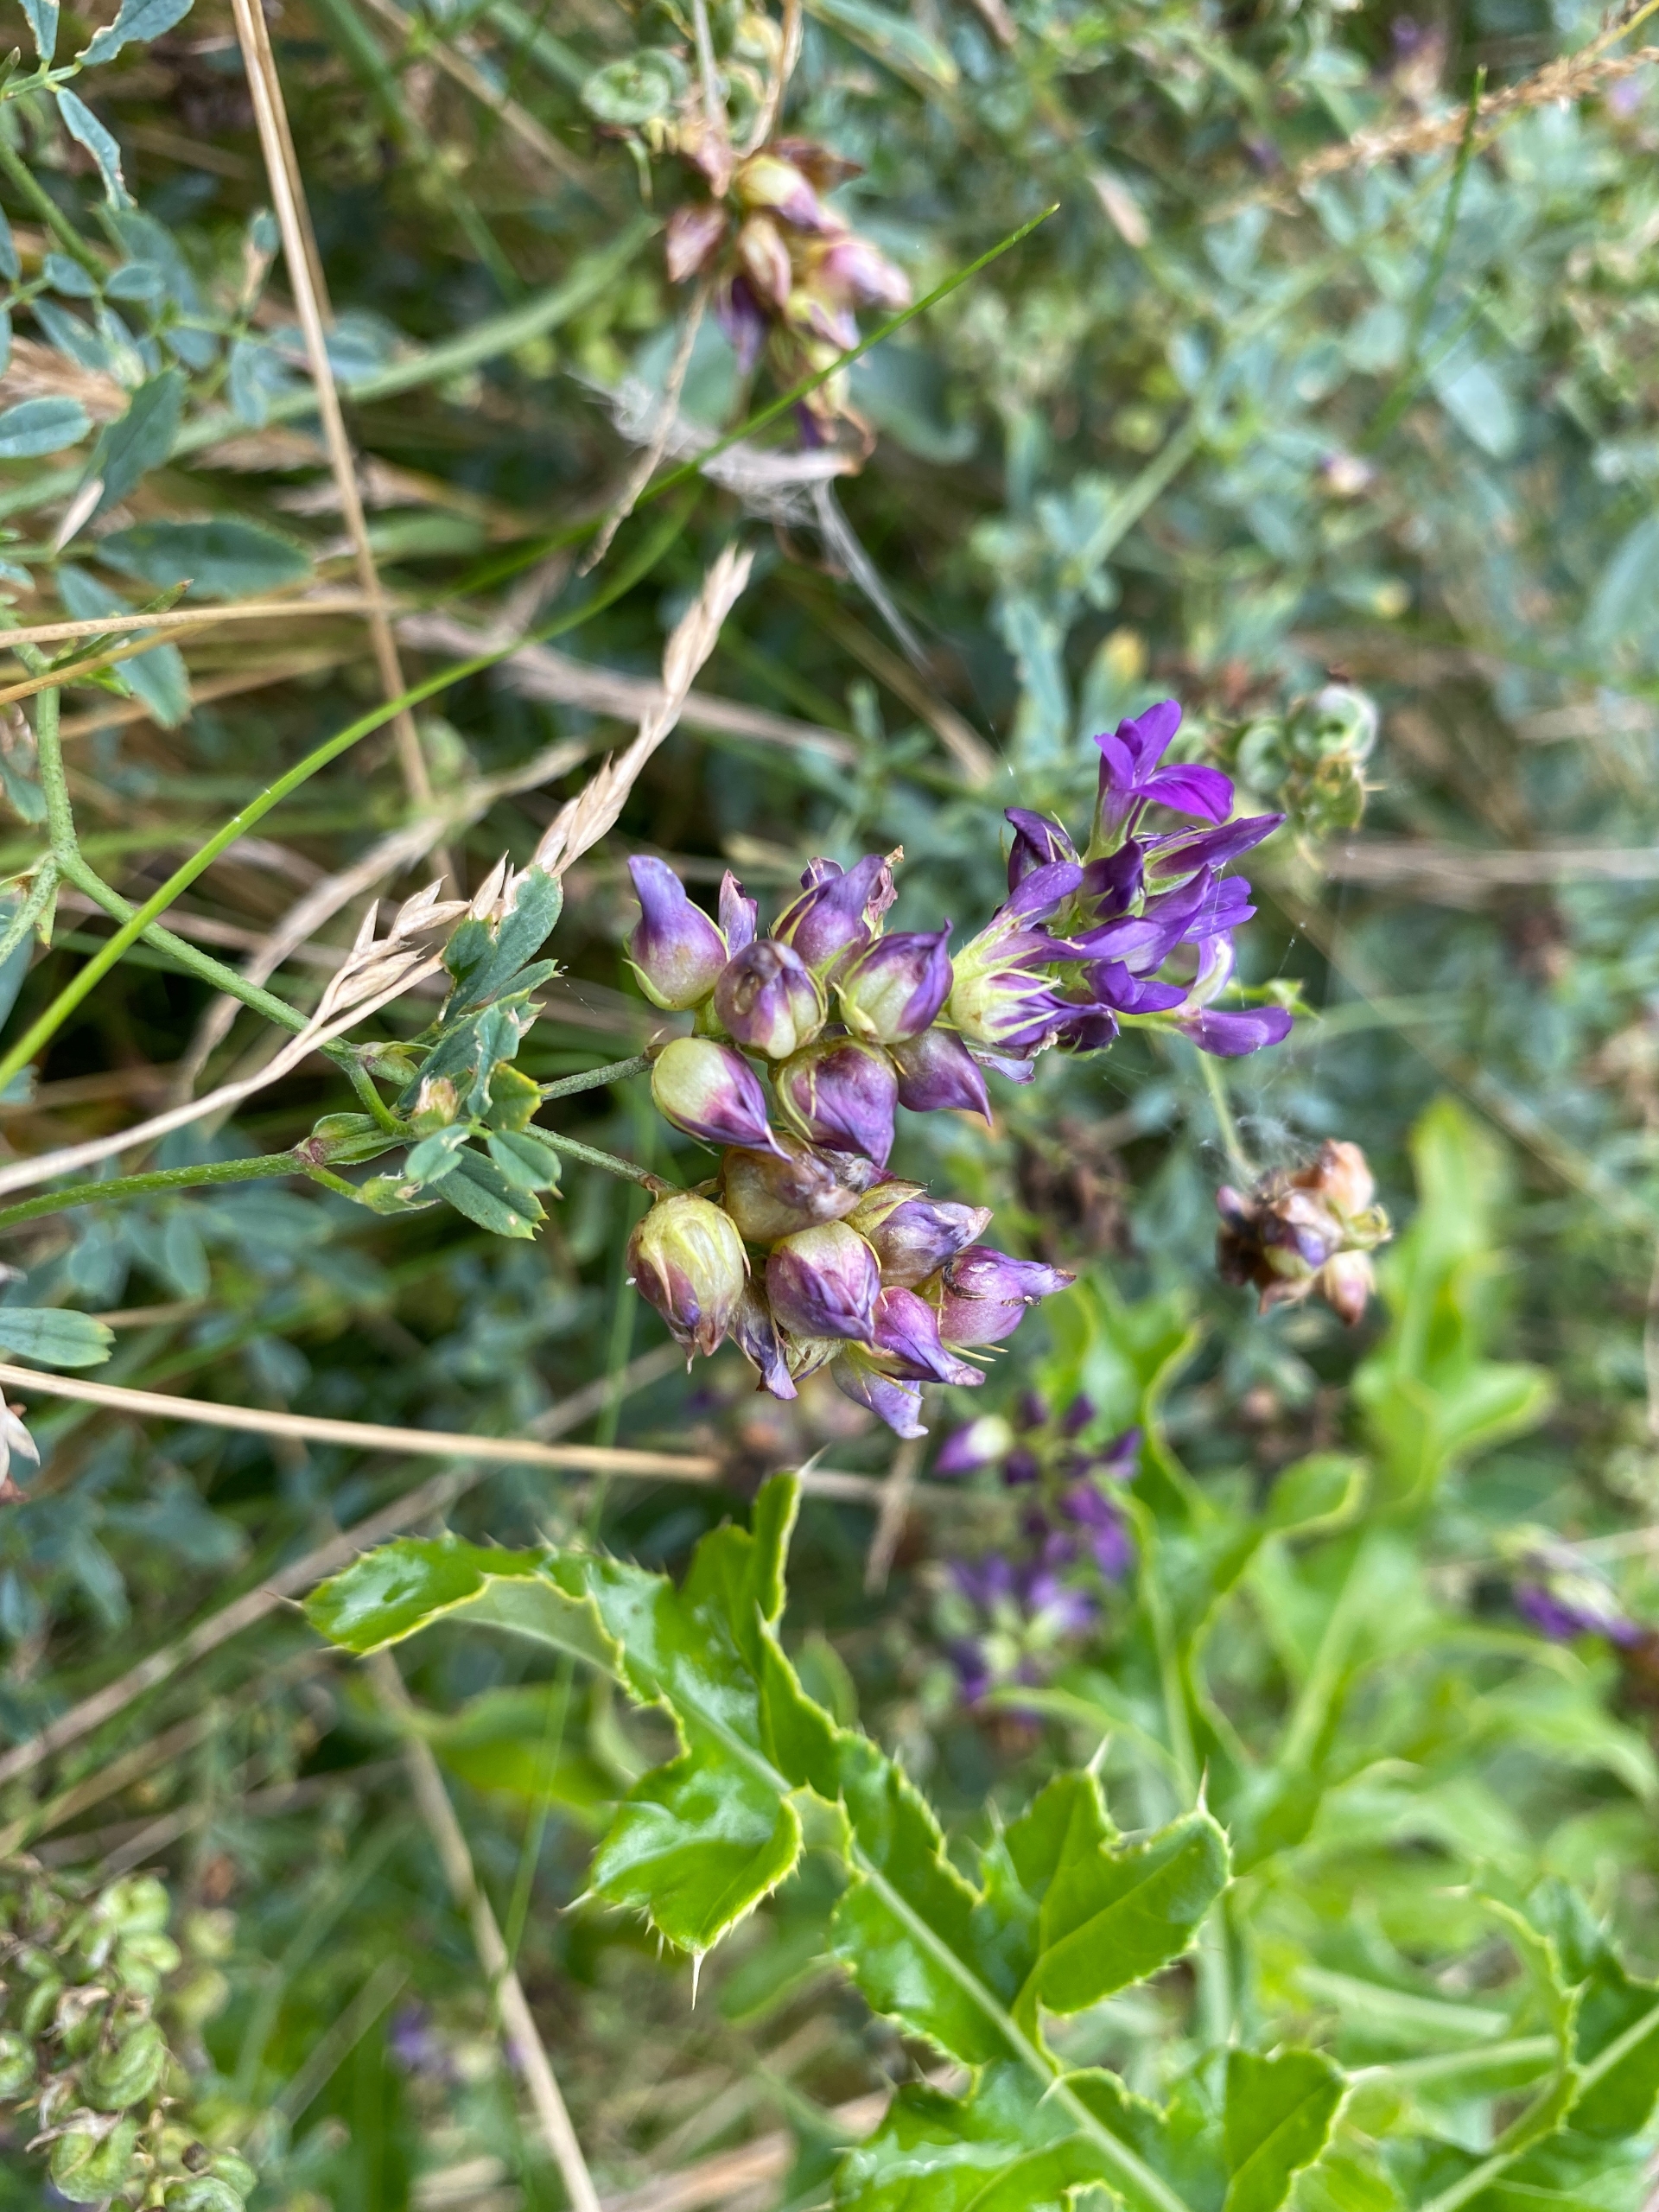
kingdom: Animalia
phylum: Arthropoda
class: Insecta
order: Diptera
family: Cecidomyiidae
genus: Contarinia
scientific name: Contarinia medicaginis
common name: Lucerneblomstgalmyg
